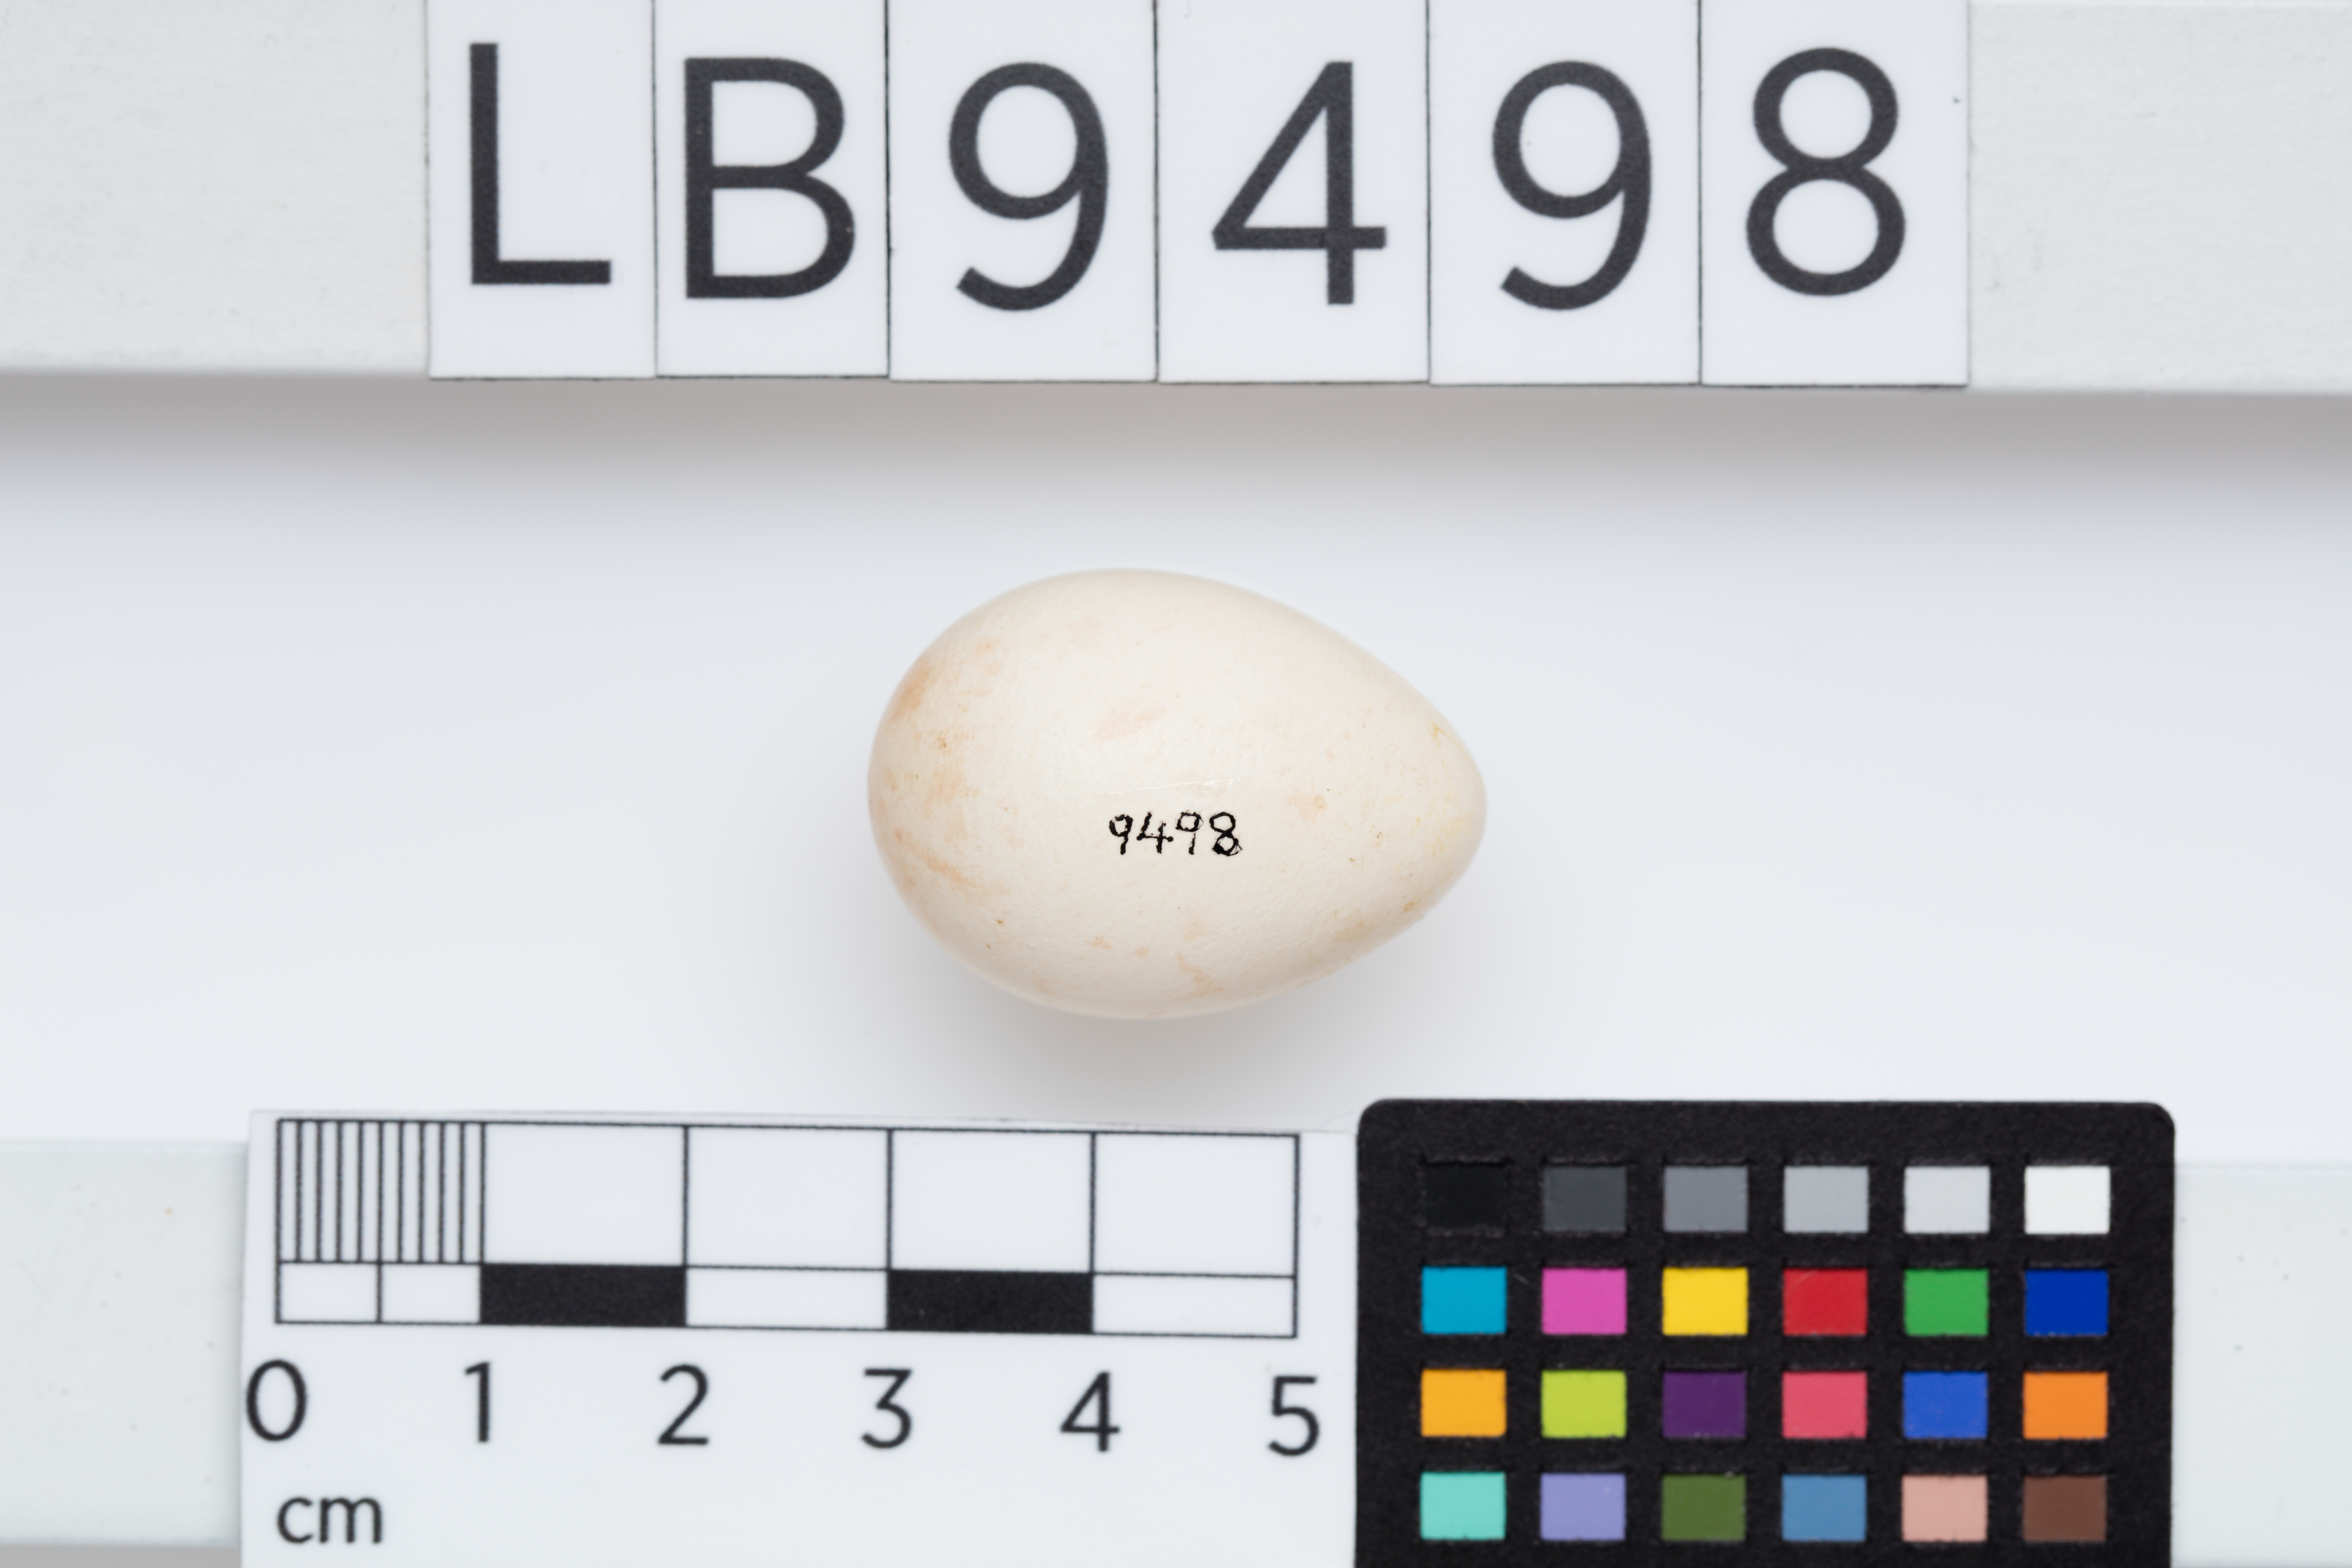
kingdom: Animalia
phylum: Chordata
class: Aves
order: Passeriformes
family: Meliphagidae
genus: Prosthemadera
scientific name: Prosthemadera novaeseelandiae
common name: Tui
